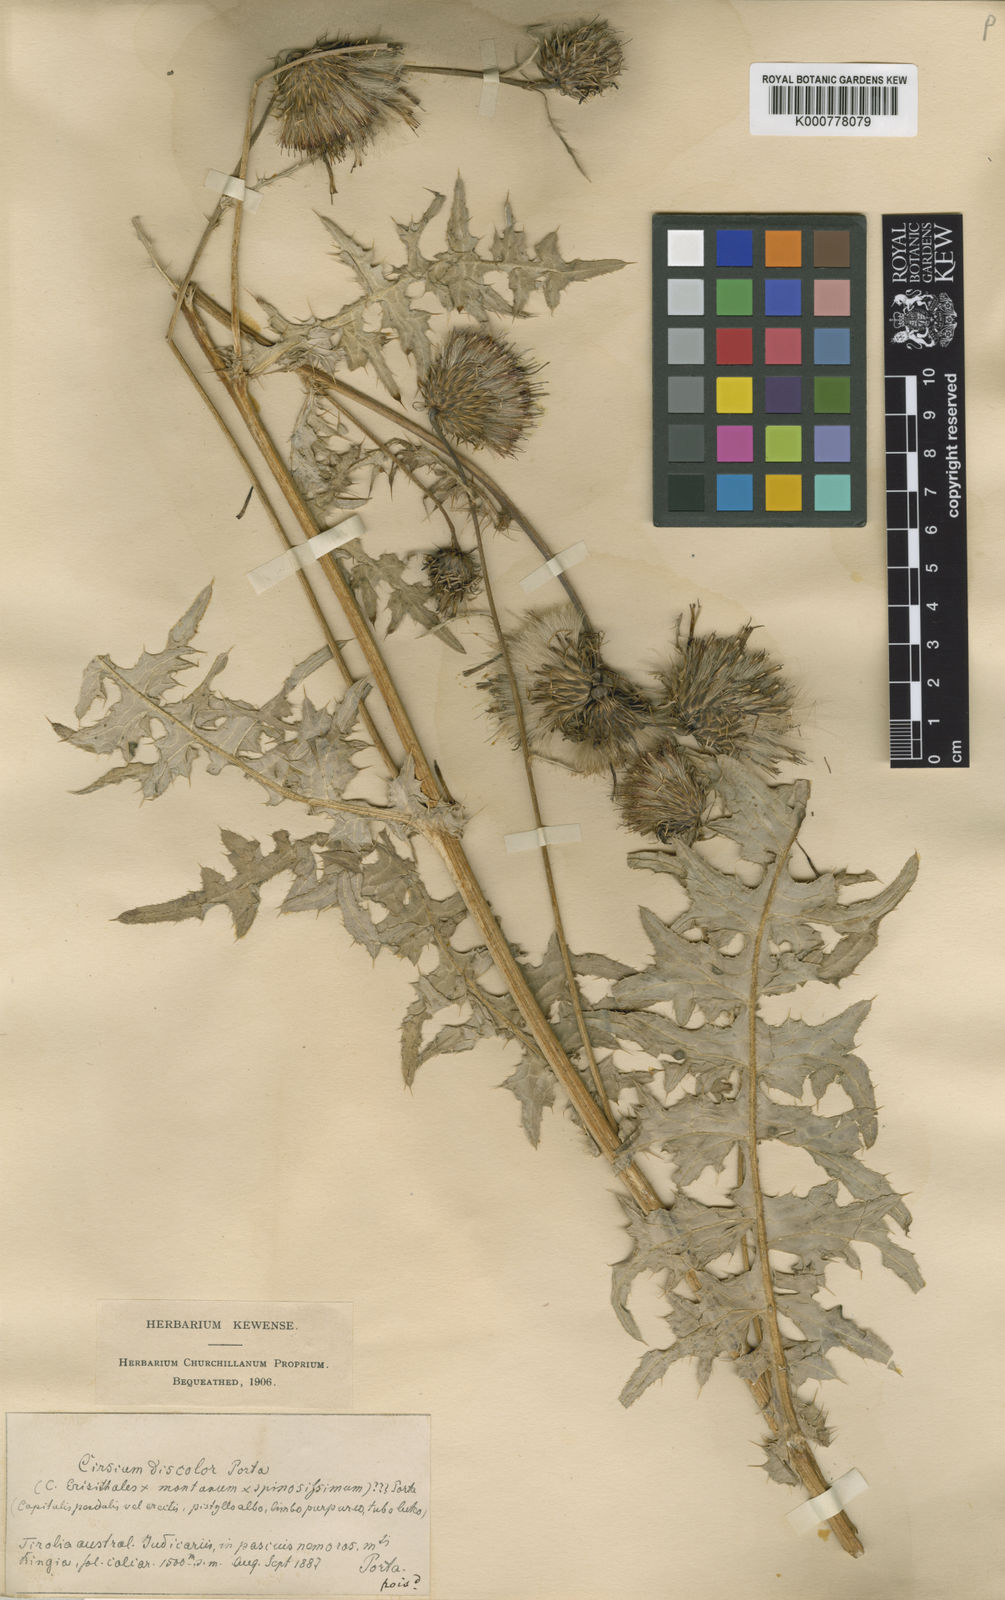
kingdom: Plantae
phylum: Tracheophyta
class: Magnoliopsida
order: Asterales
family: Asteraceae
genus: Cirsium
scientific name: Cirsium erisithales
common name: Yellow thistle
